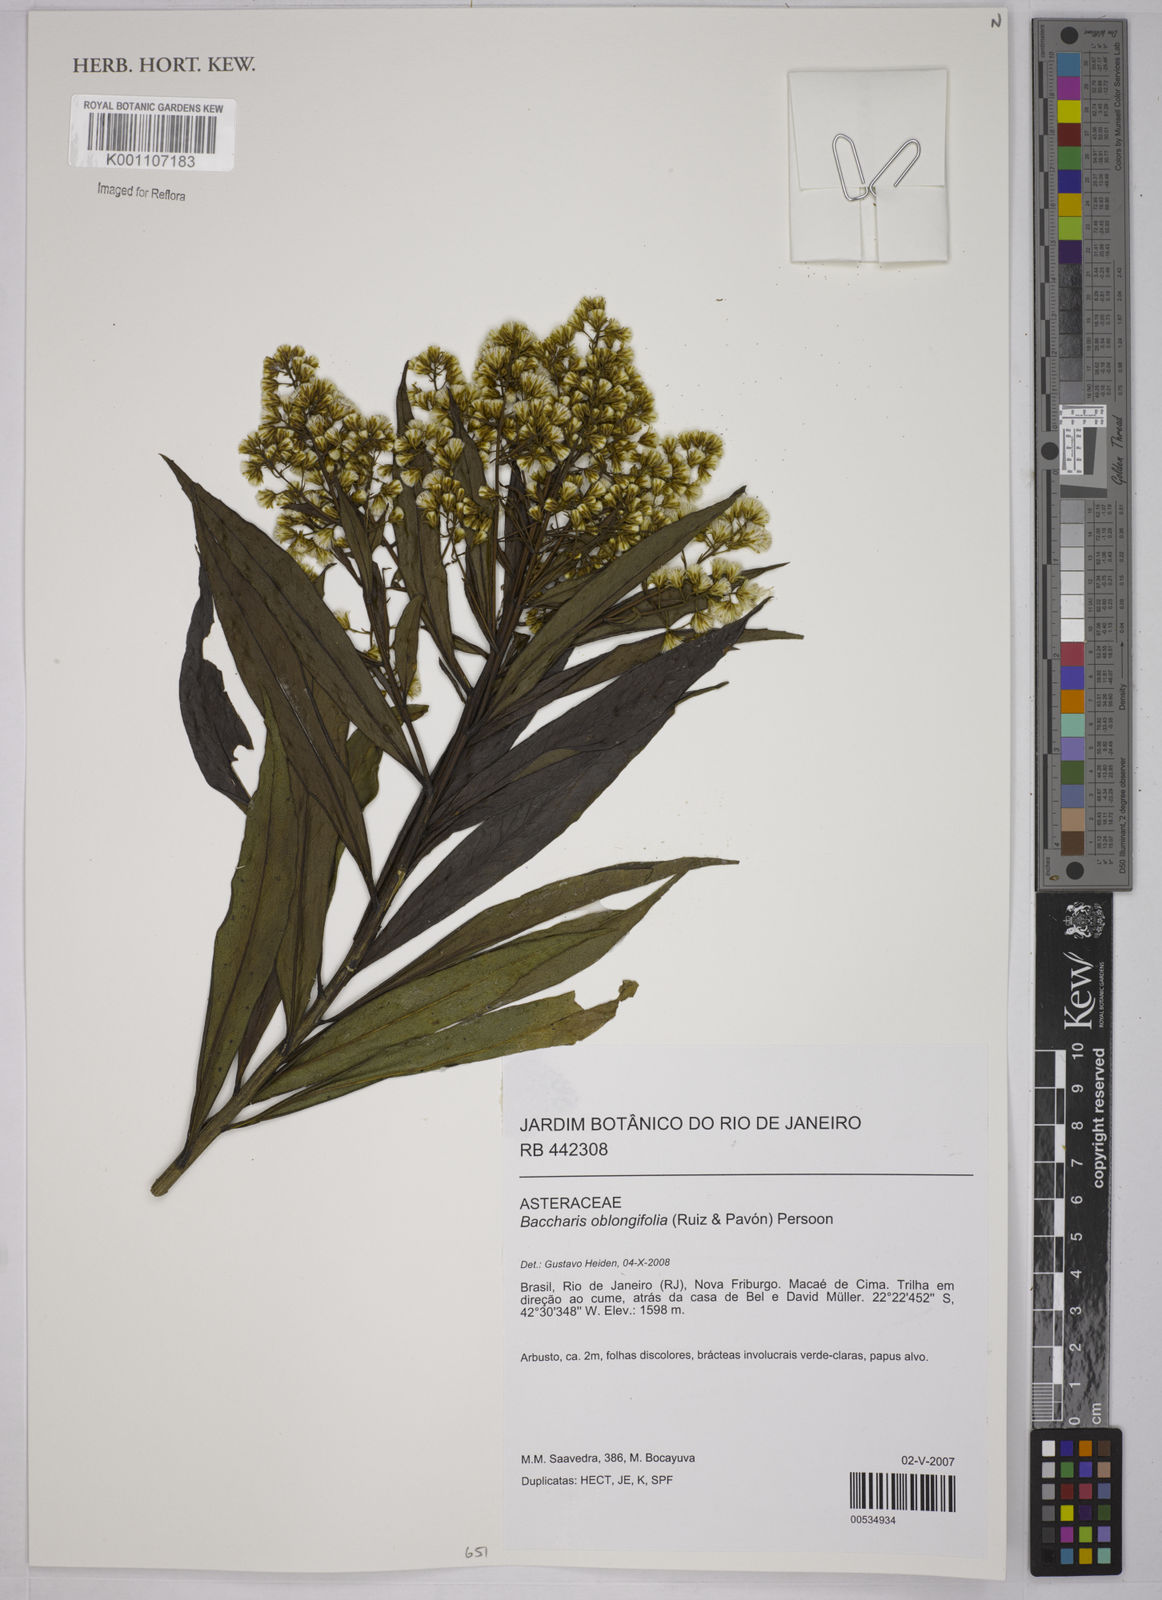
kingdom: Plantae
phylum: Tracheophyta
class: Magnoliopsida
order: Asterales
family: Asteraceae
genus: Baccharis
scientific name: Baccharis oblongifolia
